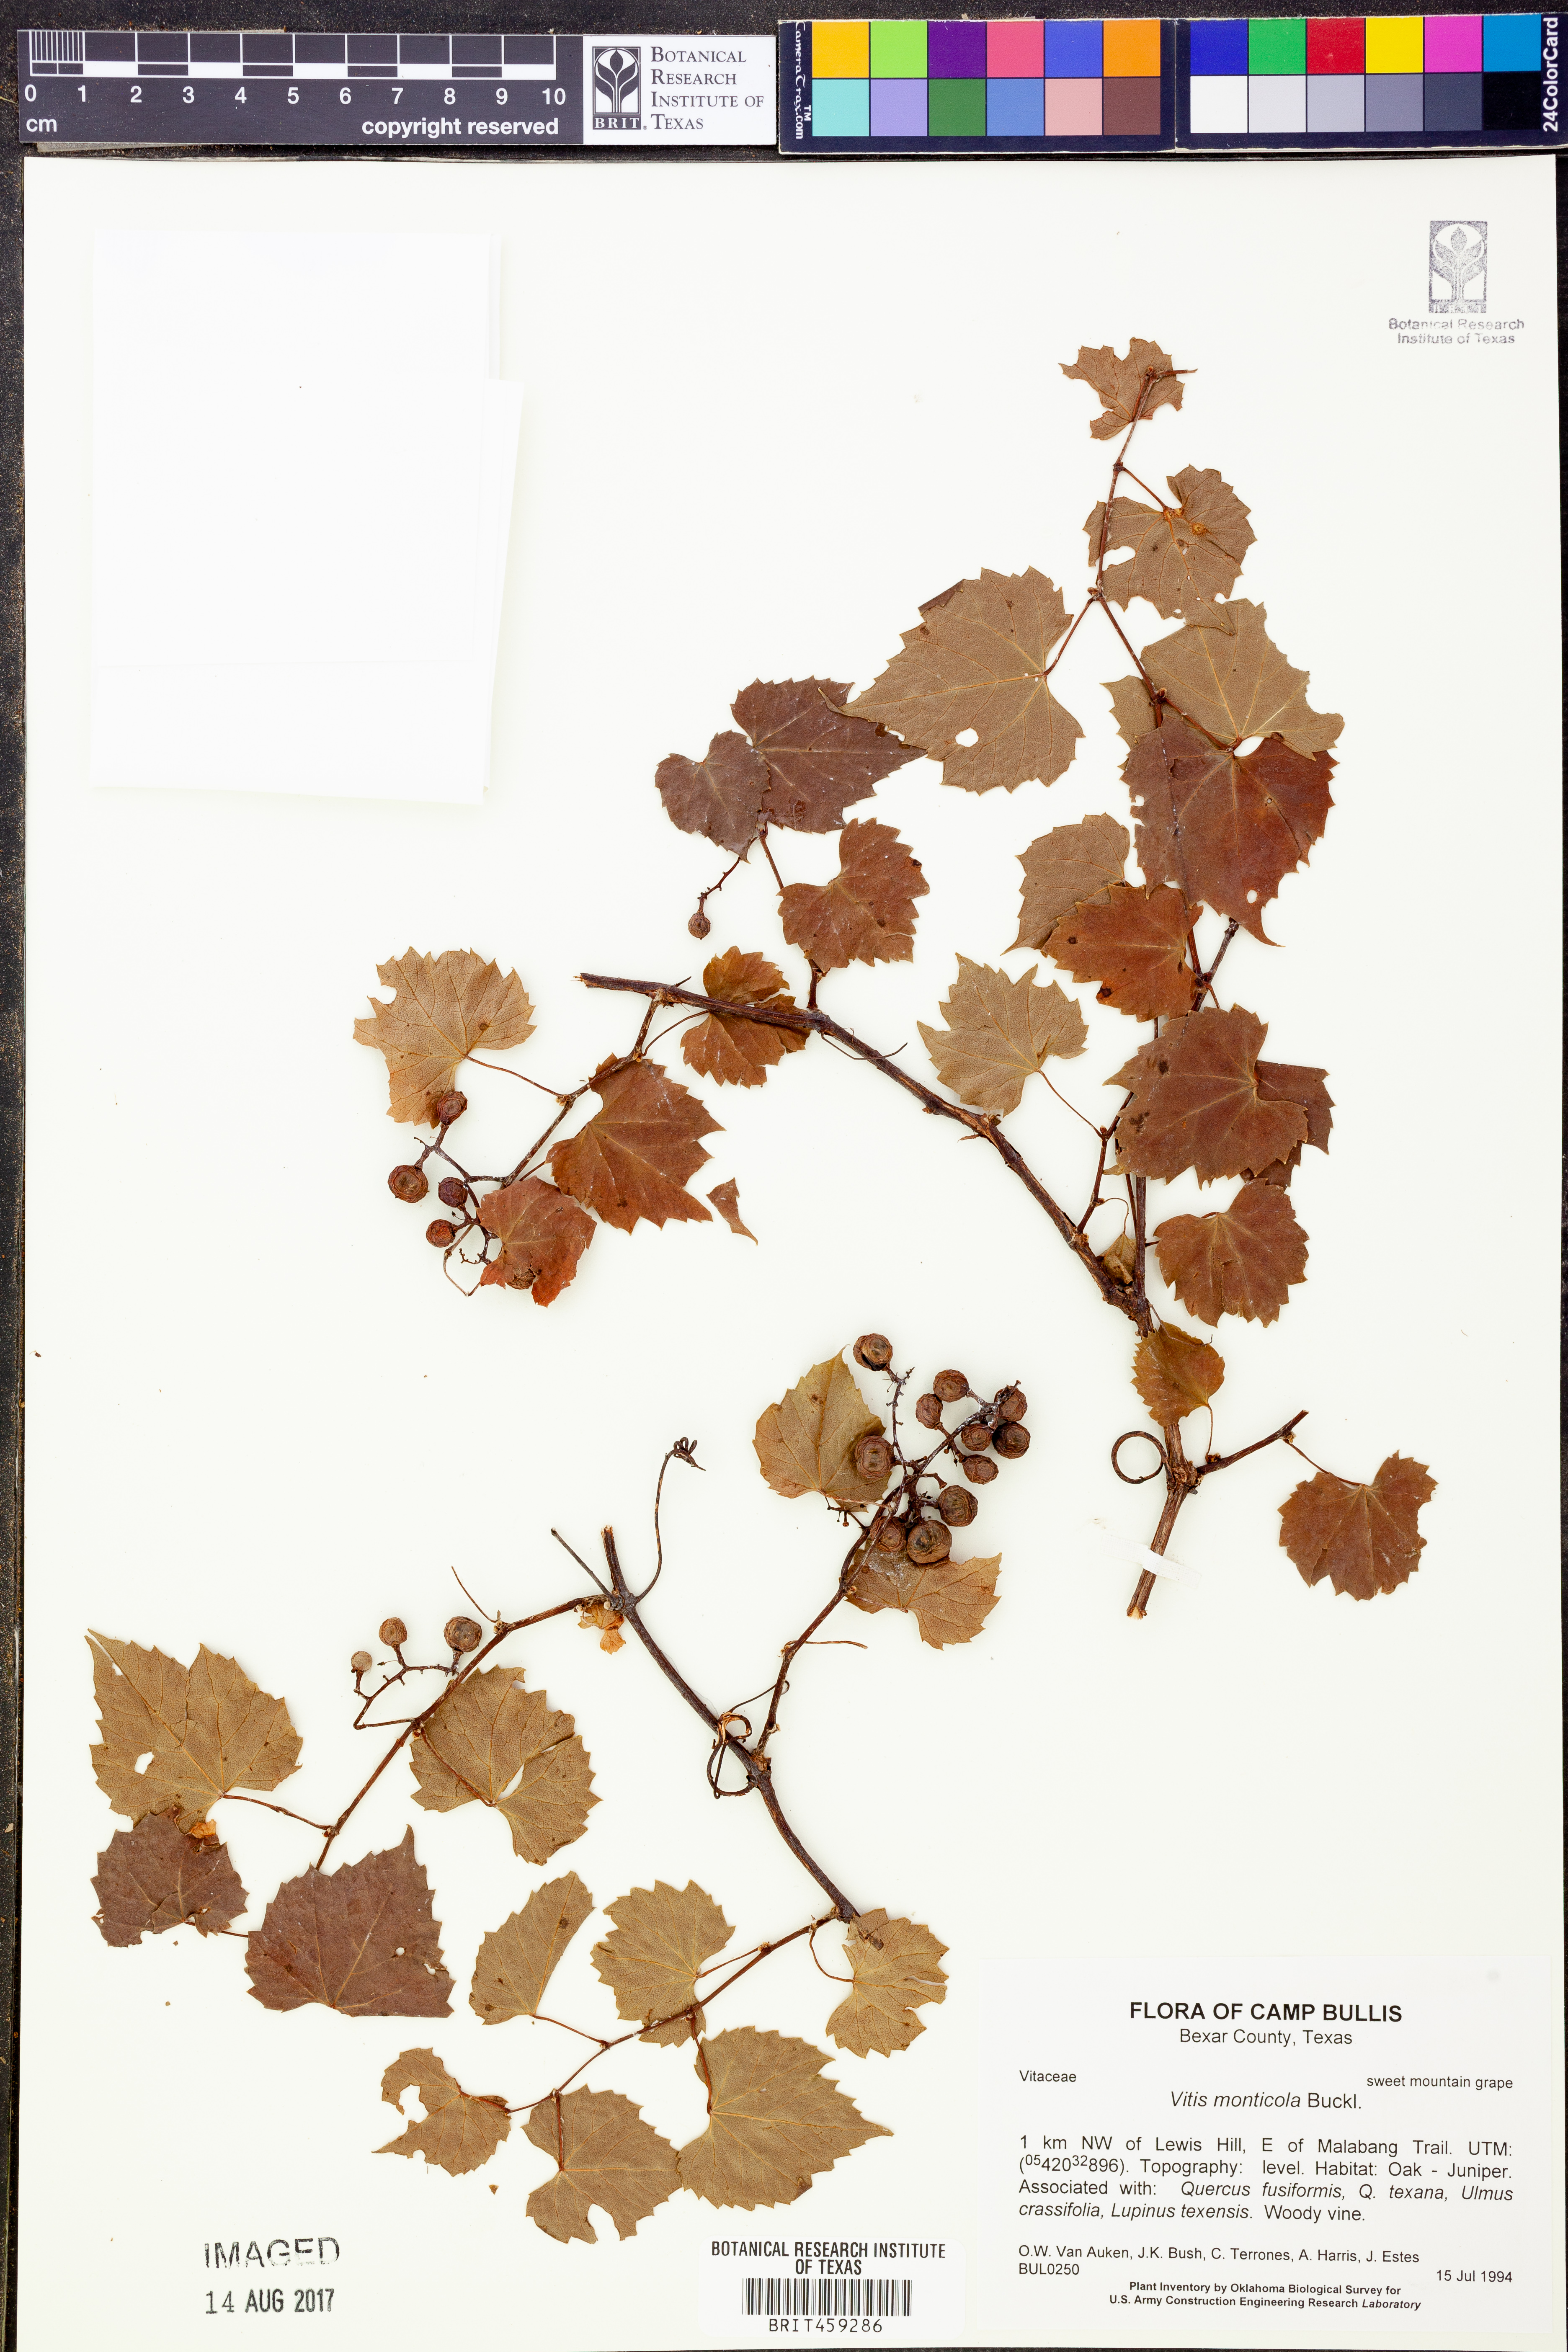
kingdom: Plantae
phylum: Tracheophyta
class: Magnoliopsida
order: Vitales
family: Vitaceae
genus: Vitis
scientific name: Vitis monticola
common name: Mountain grape
